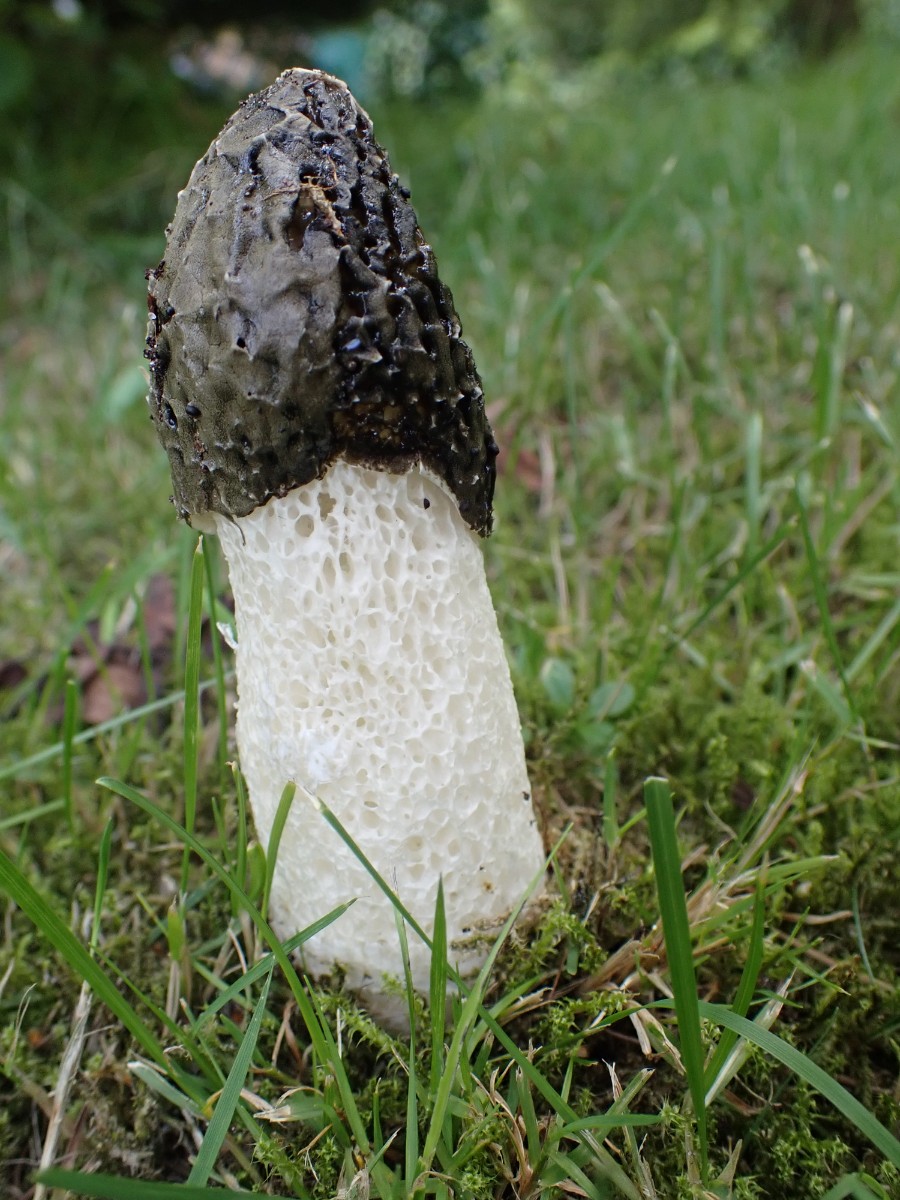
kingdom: Fungi
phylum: Basidiomycota
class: Agaricomycetes
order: Phallales
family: Phallaceae
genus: Phallus
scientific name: Phallus impudicus
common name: almindelig stinksvamp
